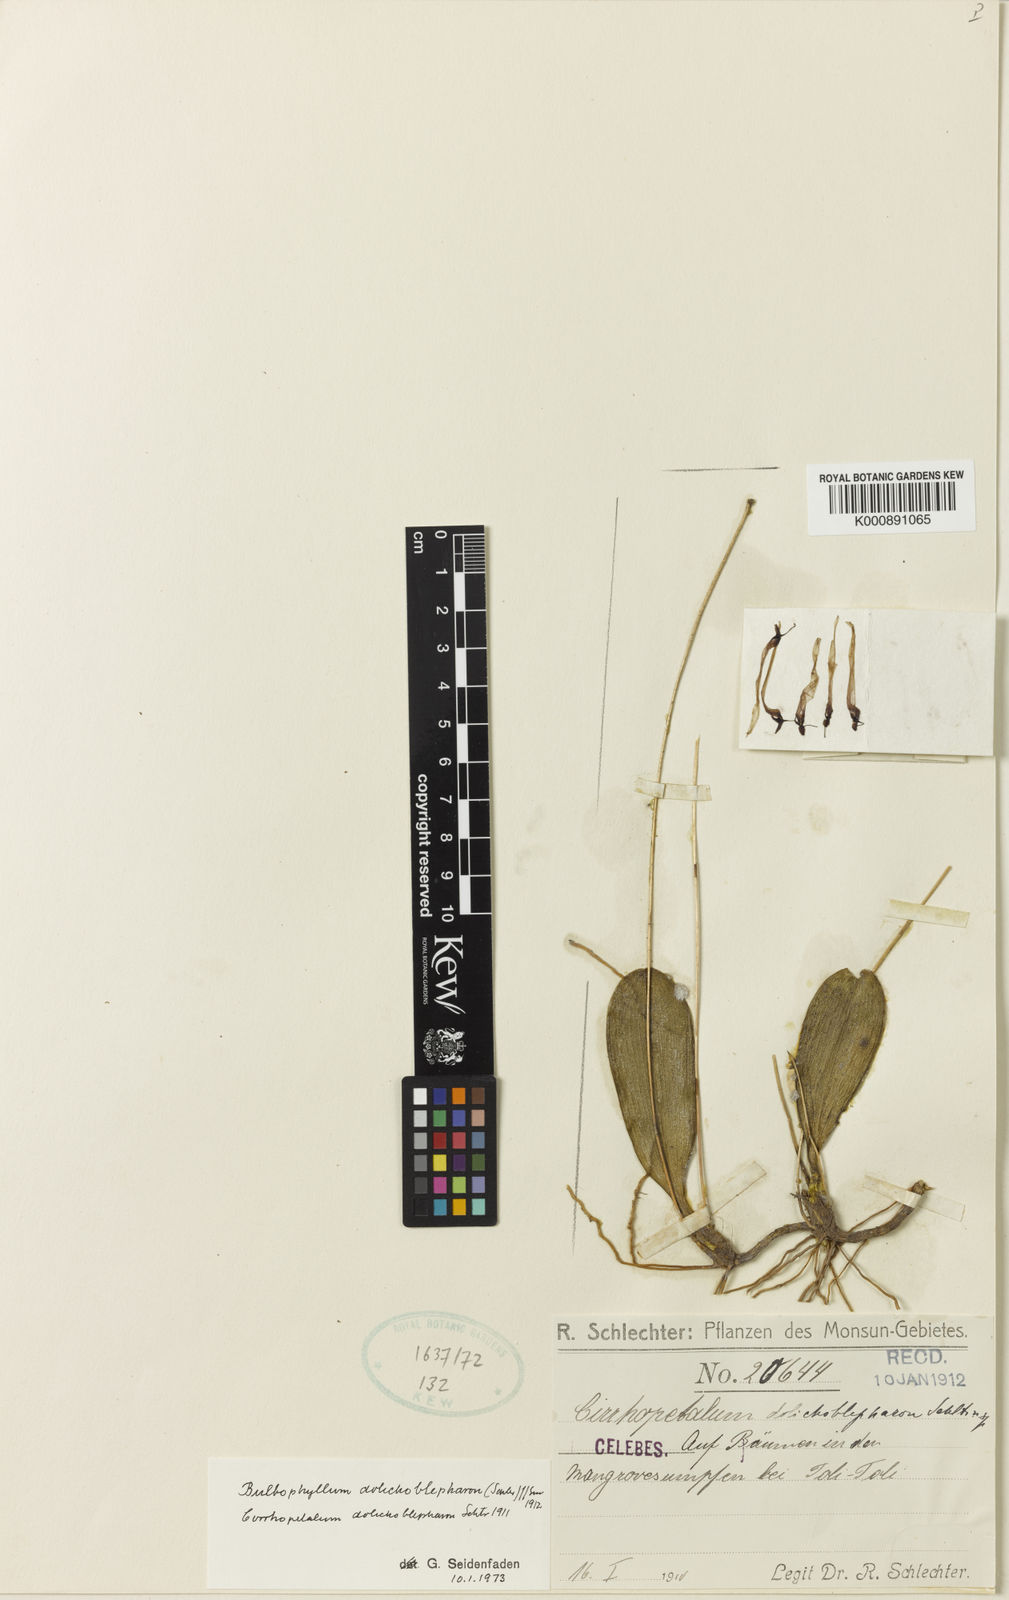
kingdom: Plantae
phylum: Tracheophyta
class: Liliopsida
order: Asparagales
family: Orchidaceae
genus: Bulbophyllum
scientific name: Bulbophyllum brevibrachiatum
